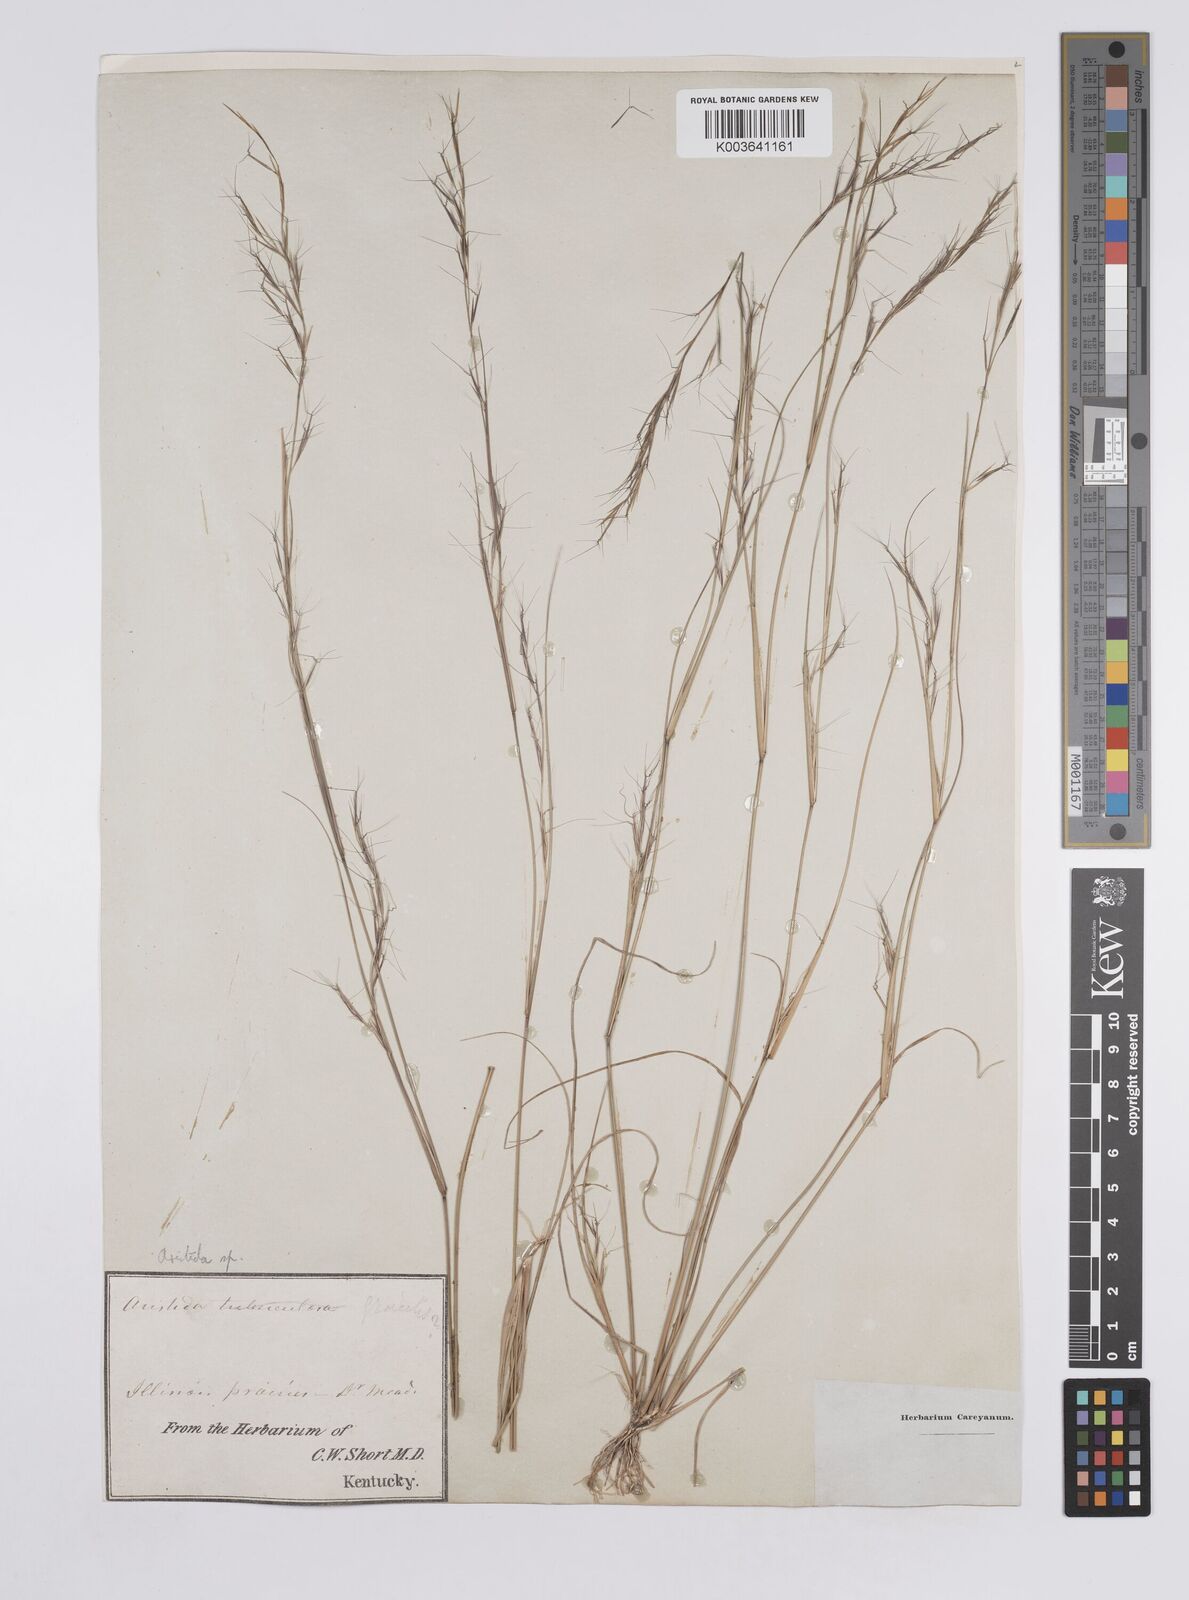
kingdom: Plantae
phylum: Tracheophyta
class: Liliopsida
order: Poales
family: Poaceae
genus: Aristida
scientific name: Aristida
